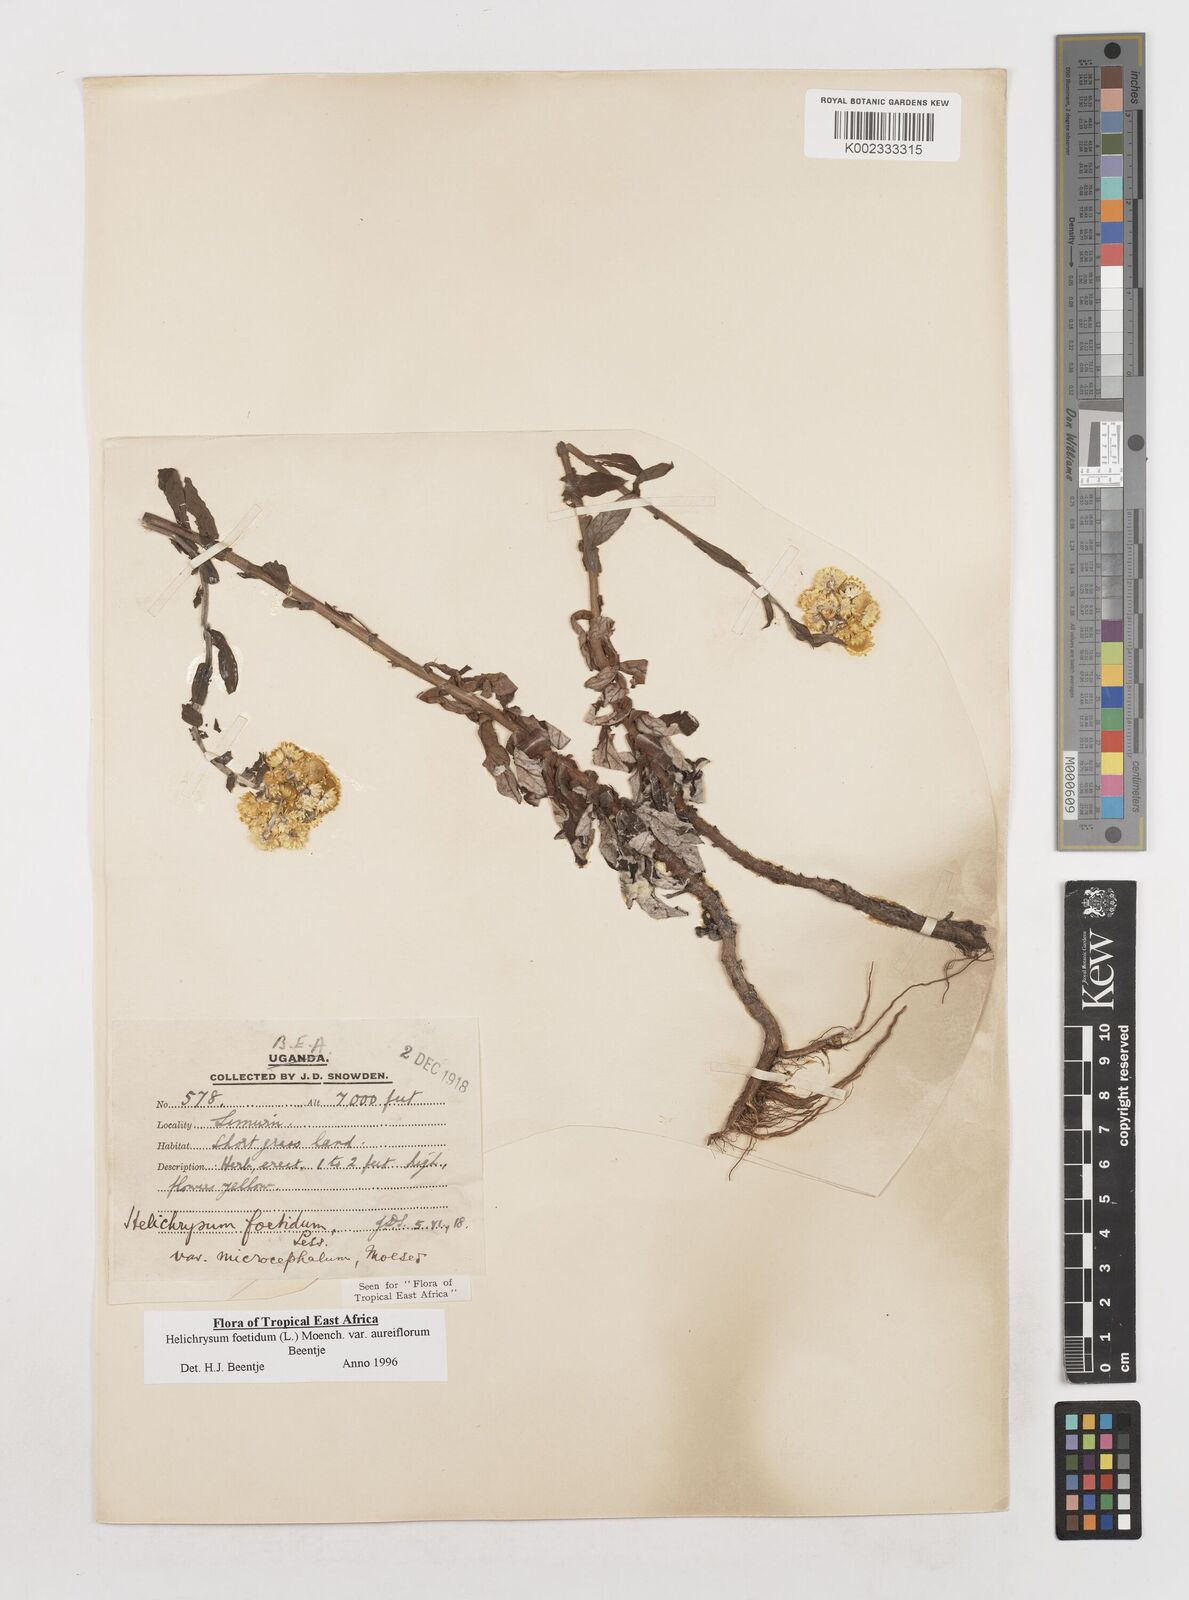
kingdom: Plantae
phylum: Tracheophyta
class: Magnoliopsida
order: Asterales
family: Asteraceae
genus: Helichrysum
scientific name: Helichrysum foetidum
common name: Stinking everlasting
